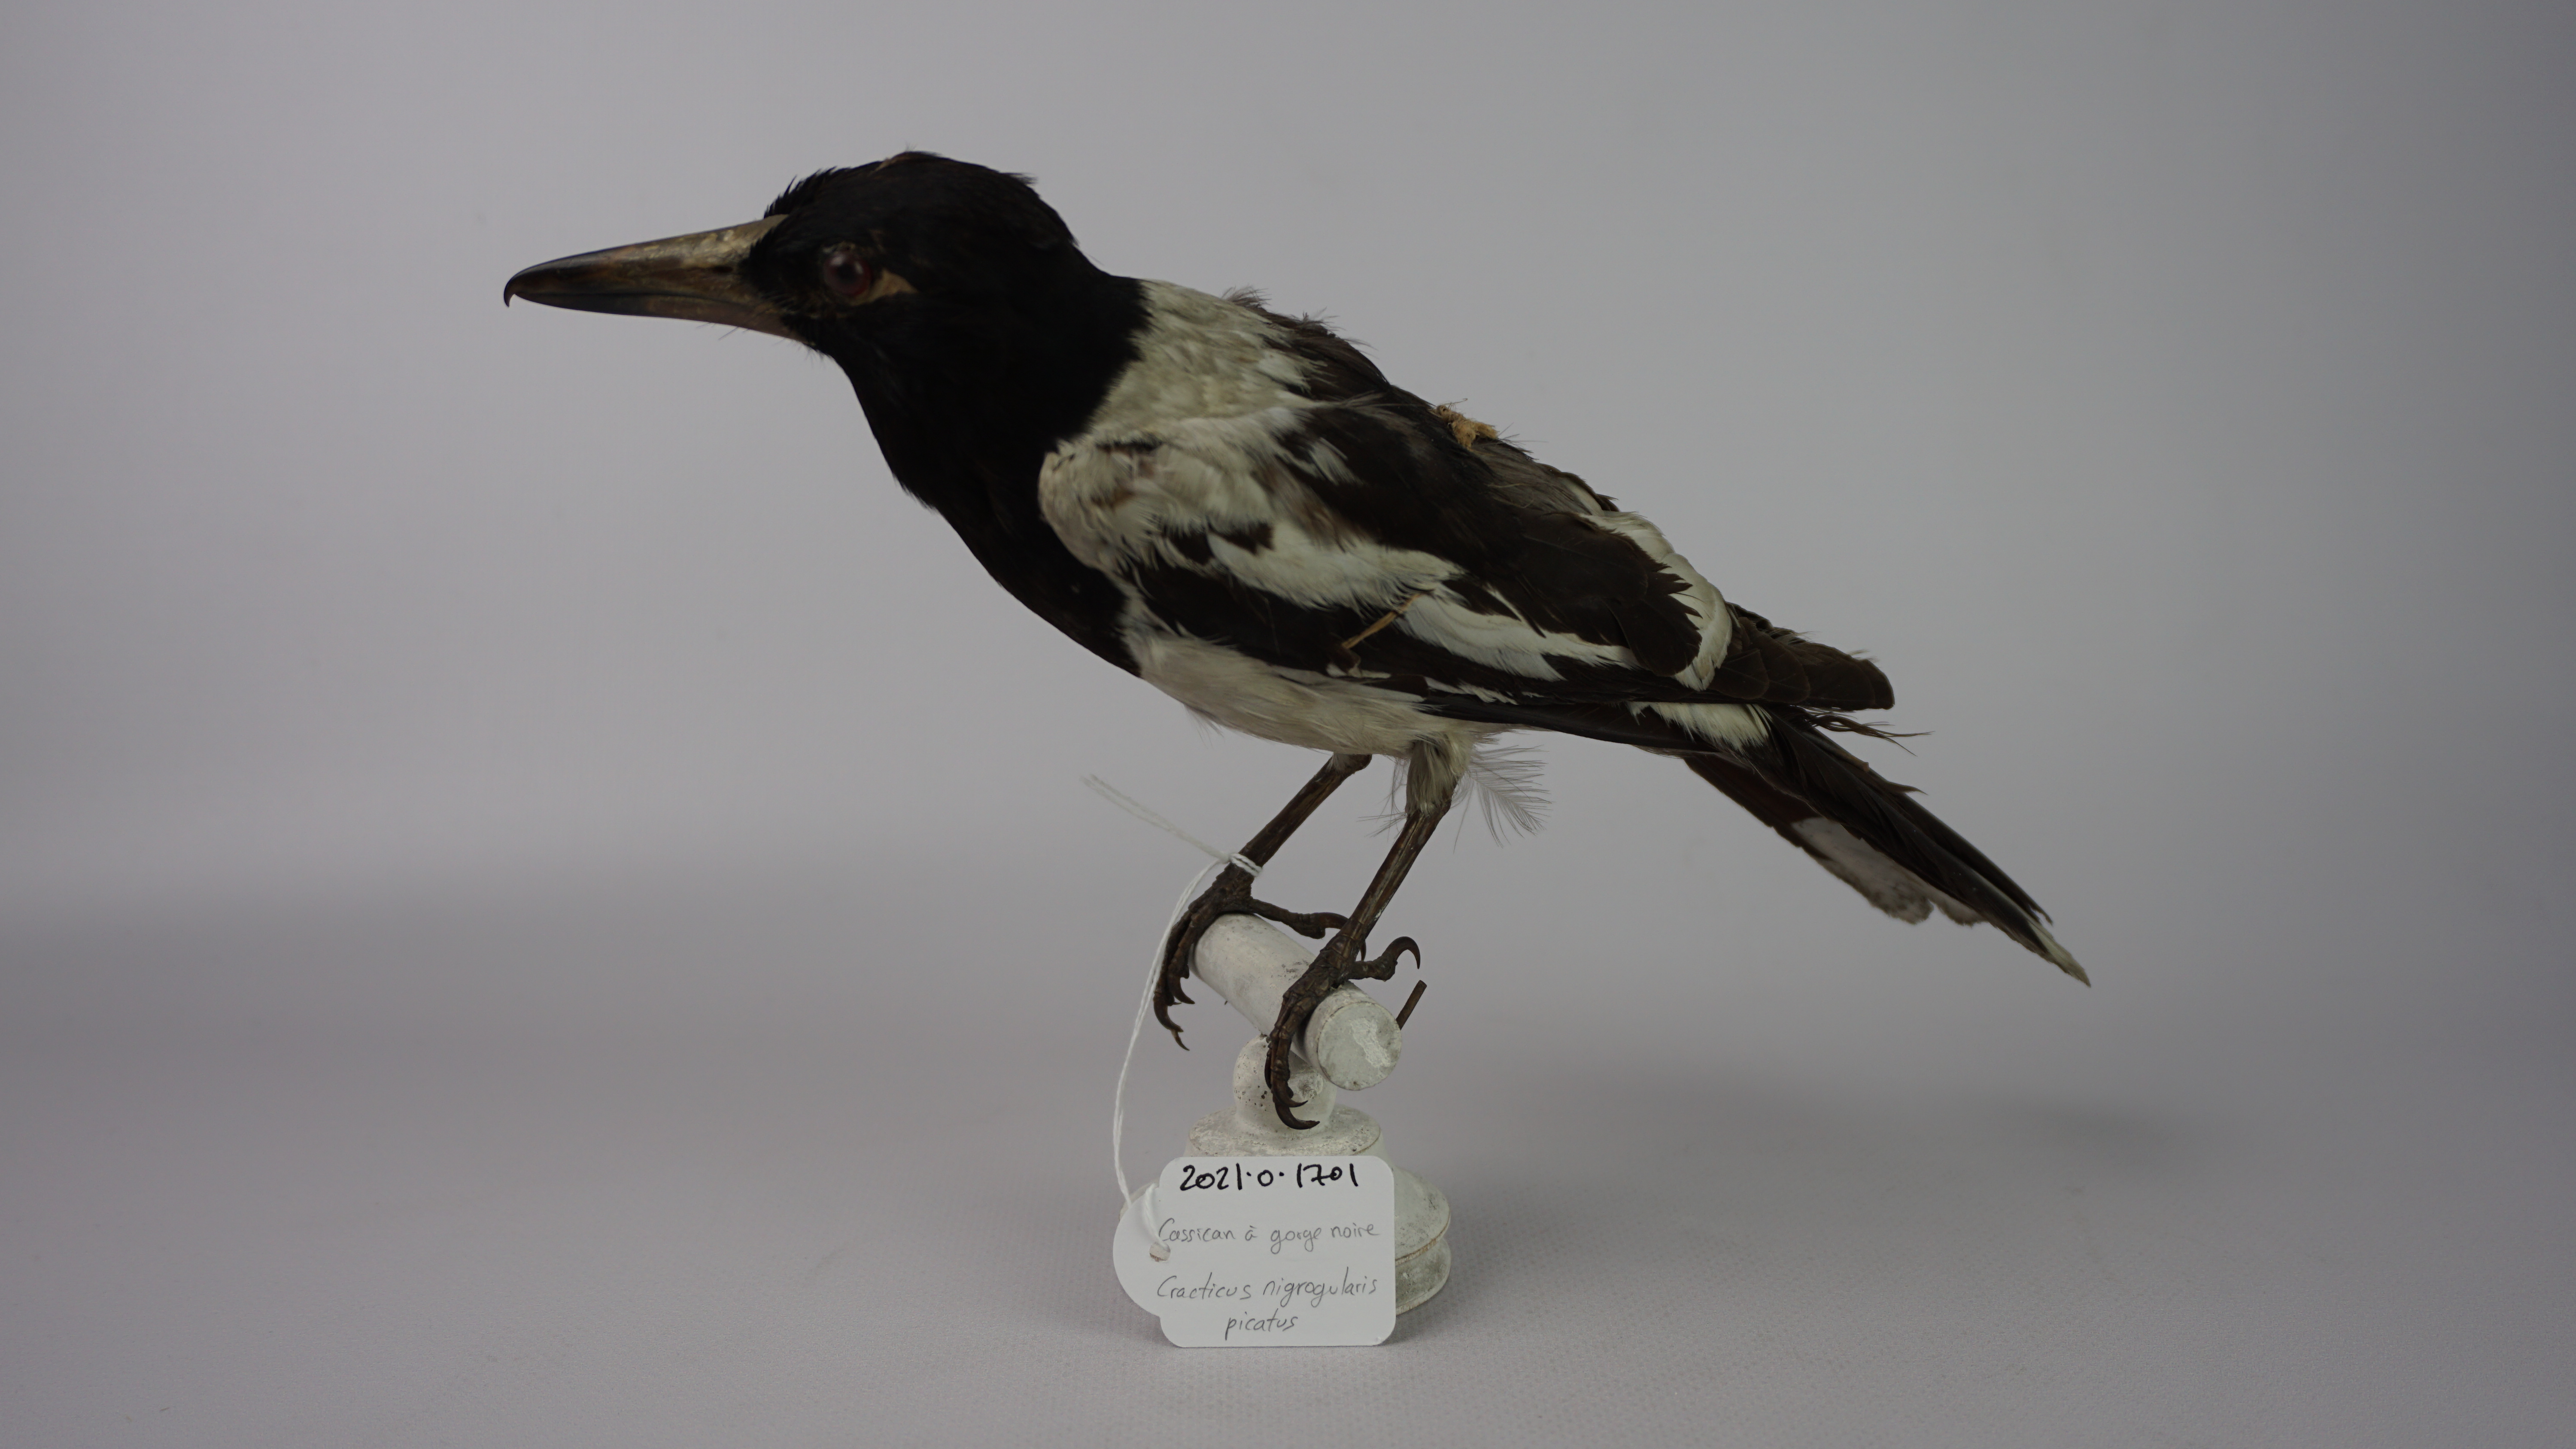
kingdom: Animalia
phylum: Chordata
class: Aves
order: Passeriformes
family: Cracticidae
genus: Cracticus
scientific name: Cracticus nigrogularis
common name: Pied butcherbird
